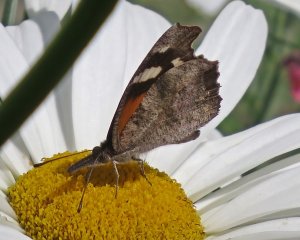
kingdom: Animalia
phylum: Arthropoda
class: Insecta
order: Lepidoptera
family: Nymphalidae
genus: Libytheana
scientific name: Libytheana carinenta
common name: American Snout
